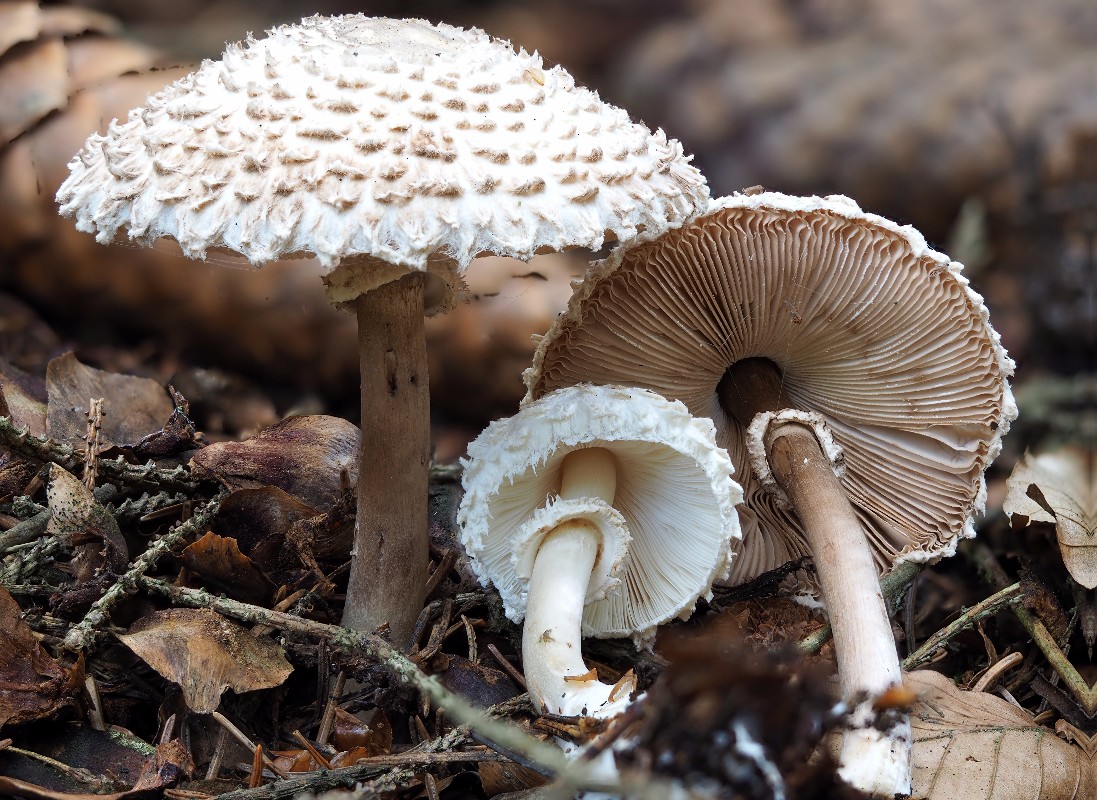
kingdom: Fungi
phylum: Basidiomycota
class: Agaricomycetes
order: Agaricales
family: Agaricaceae
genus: Leucoagaricus
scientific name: Leucoagaricus nympharum
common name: gran-silkehat
